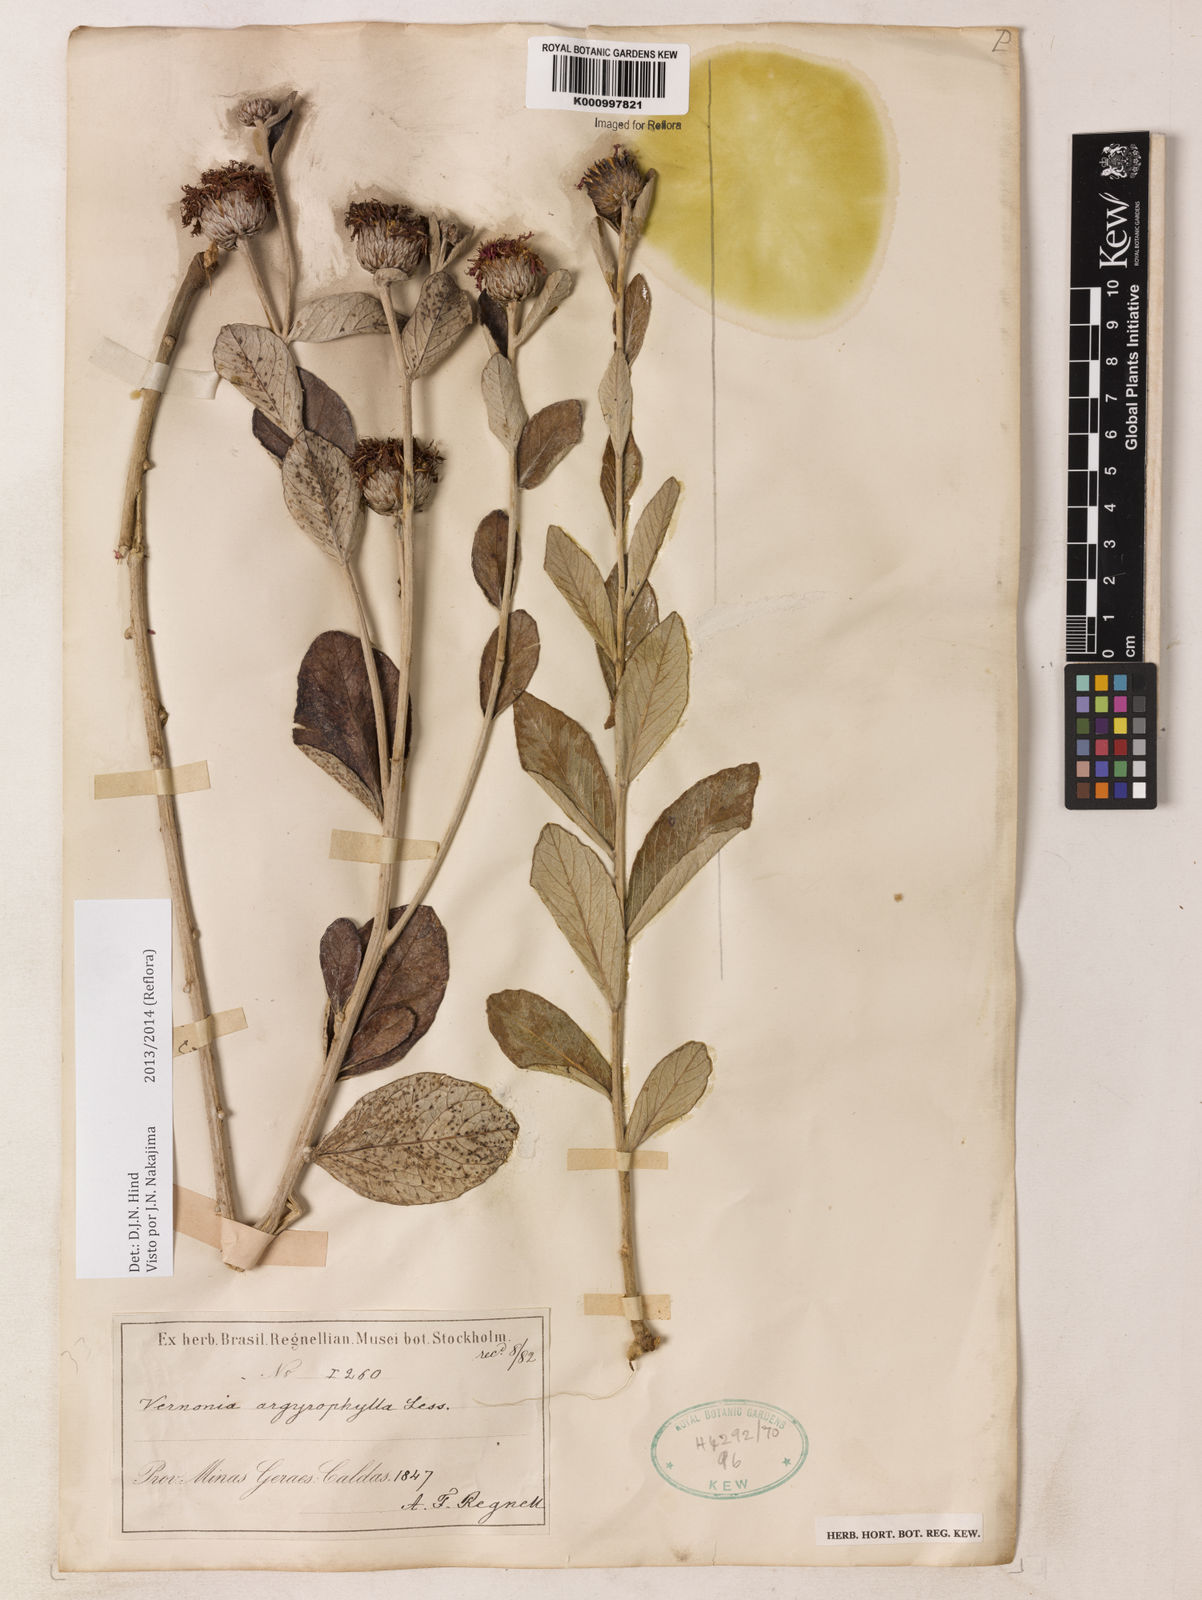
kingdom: Plantae
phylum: Tracheophyta
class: Magnoliopsida
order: Asterales
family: Asteraceae
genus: Lessingianthus
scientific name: Lessingianthus argyrophyllus
